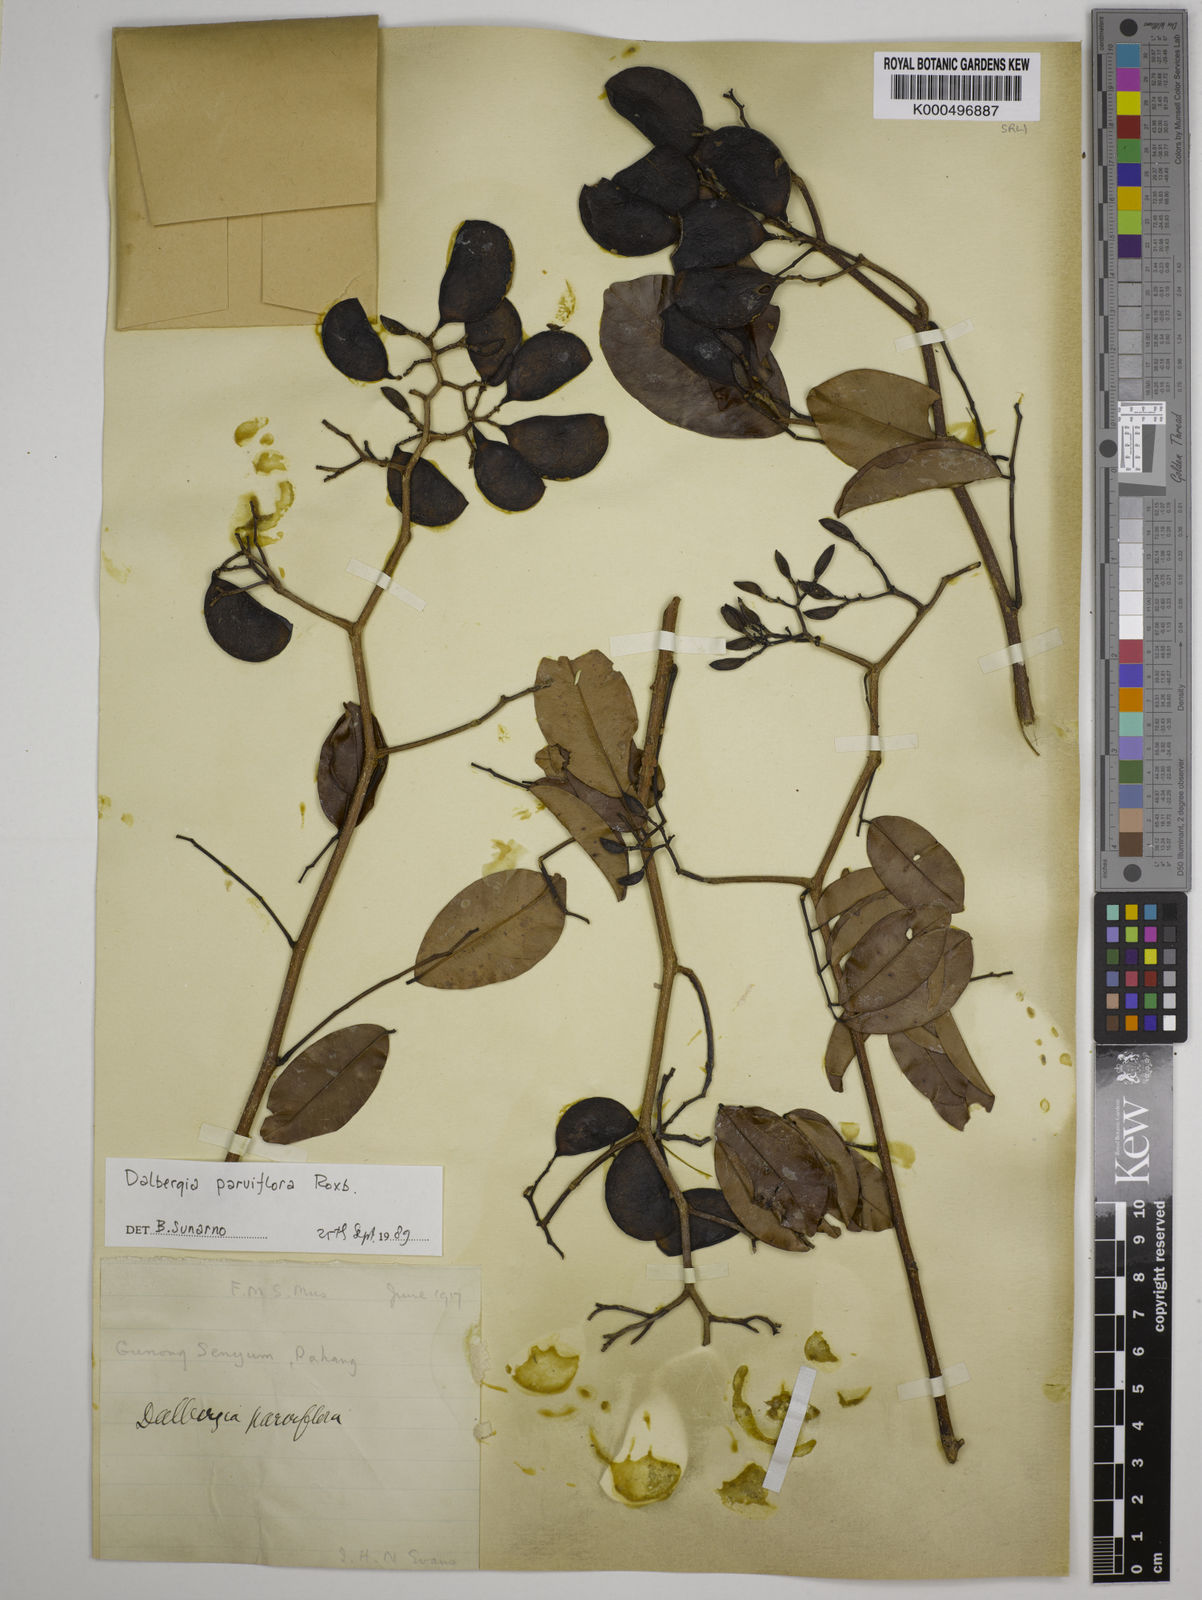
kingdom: Plantae
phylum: Tracheophyta
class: Magnoliopsida
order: Fabales
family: Fabaceae
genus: Dalbergia
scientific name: Dalbergia parviflora
